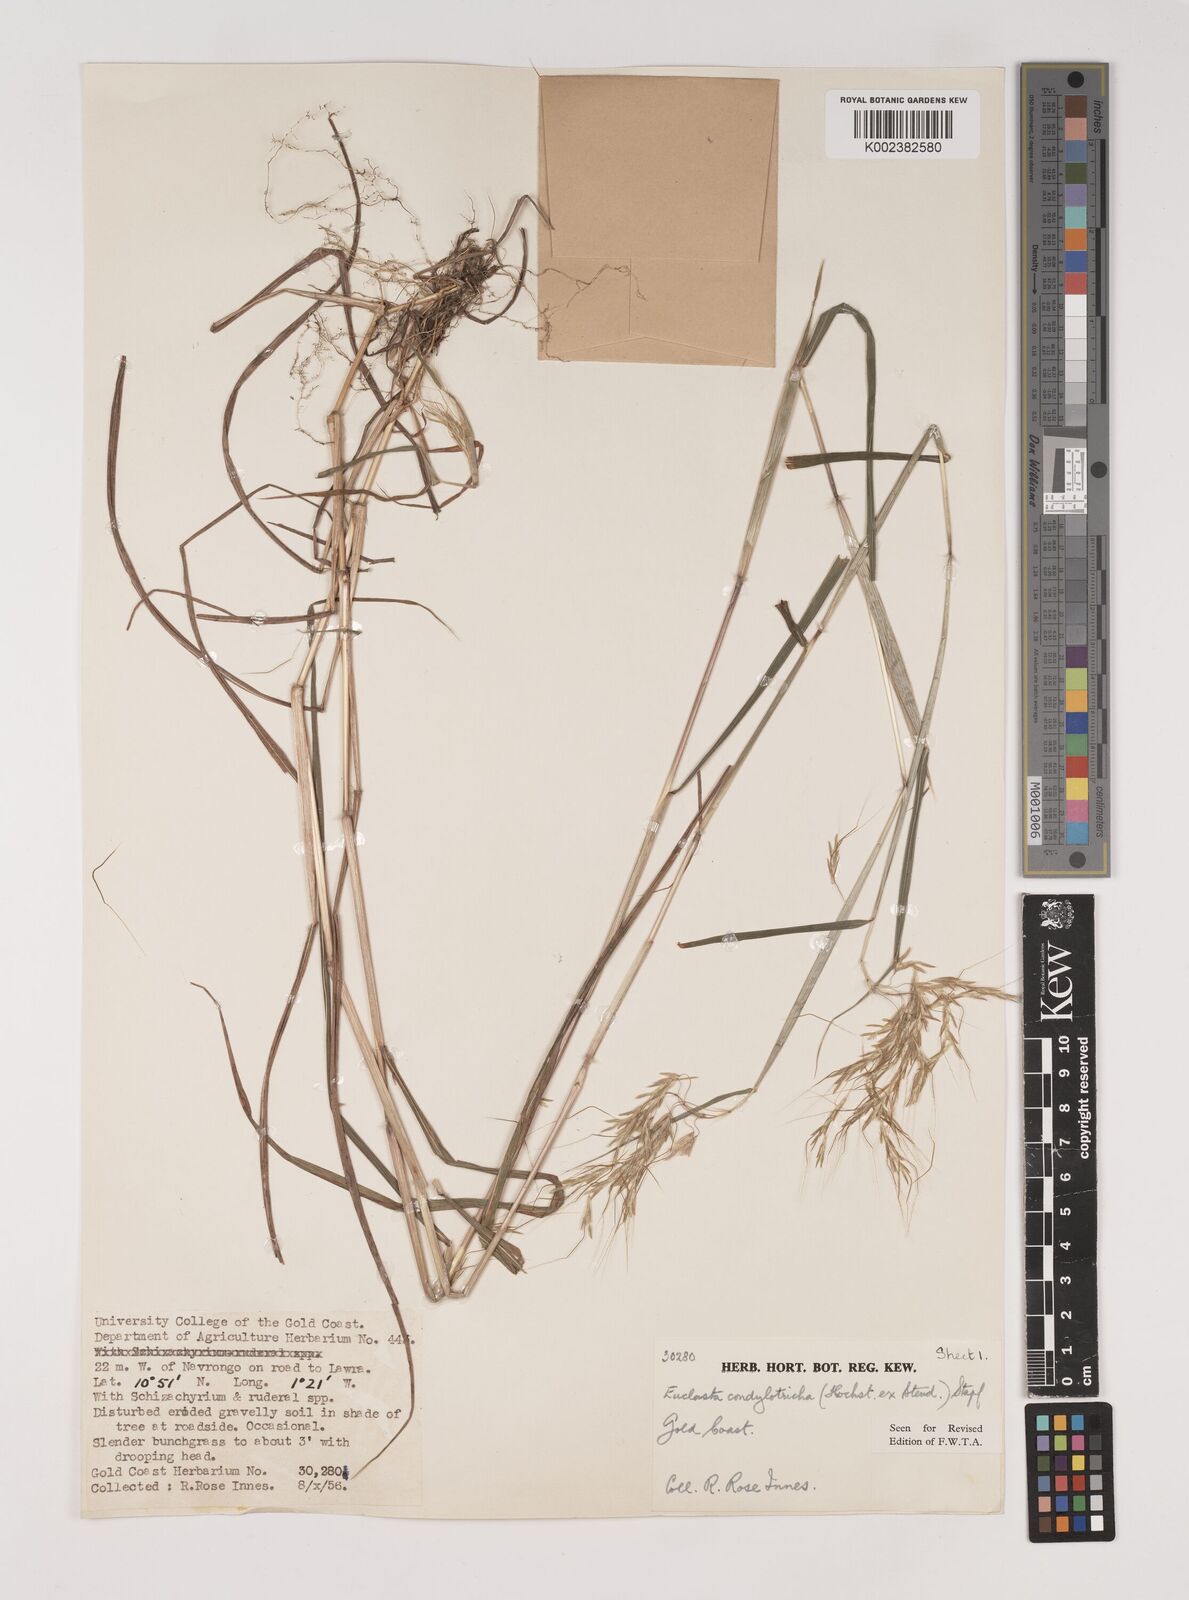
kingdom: Plantae
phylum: Tracheophyta
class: Liliopsida
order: Poales
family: Poaceae
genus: Euclasta
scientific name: Euclasta condylotricha
